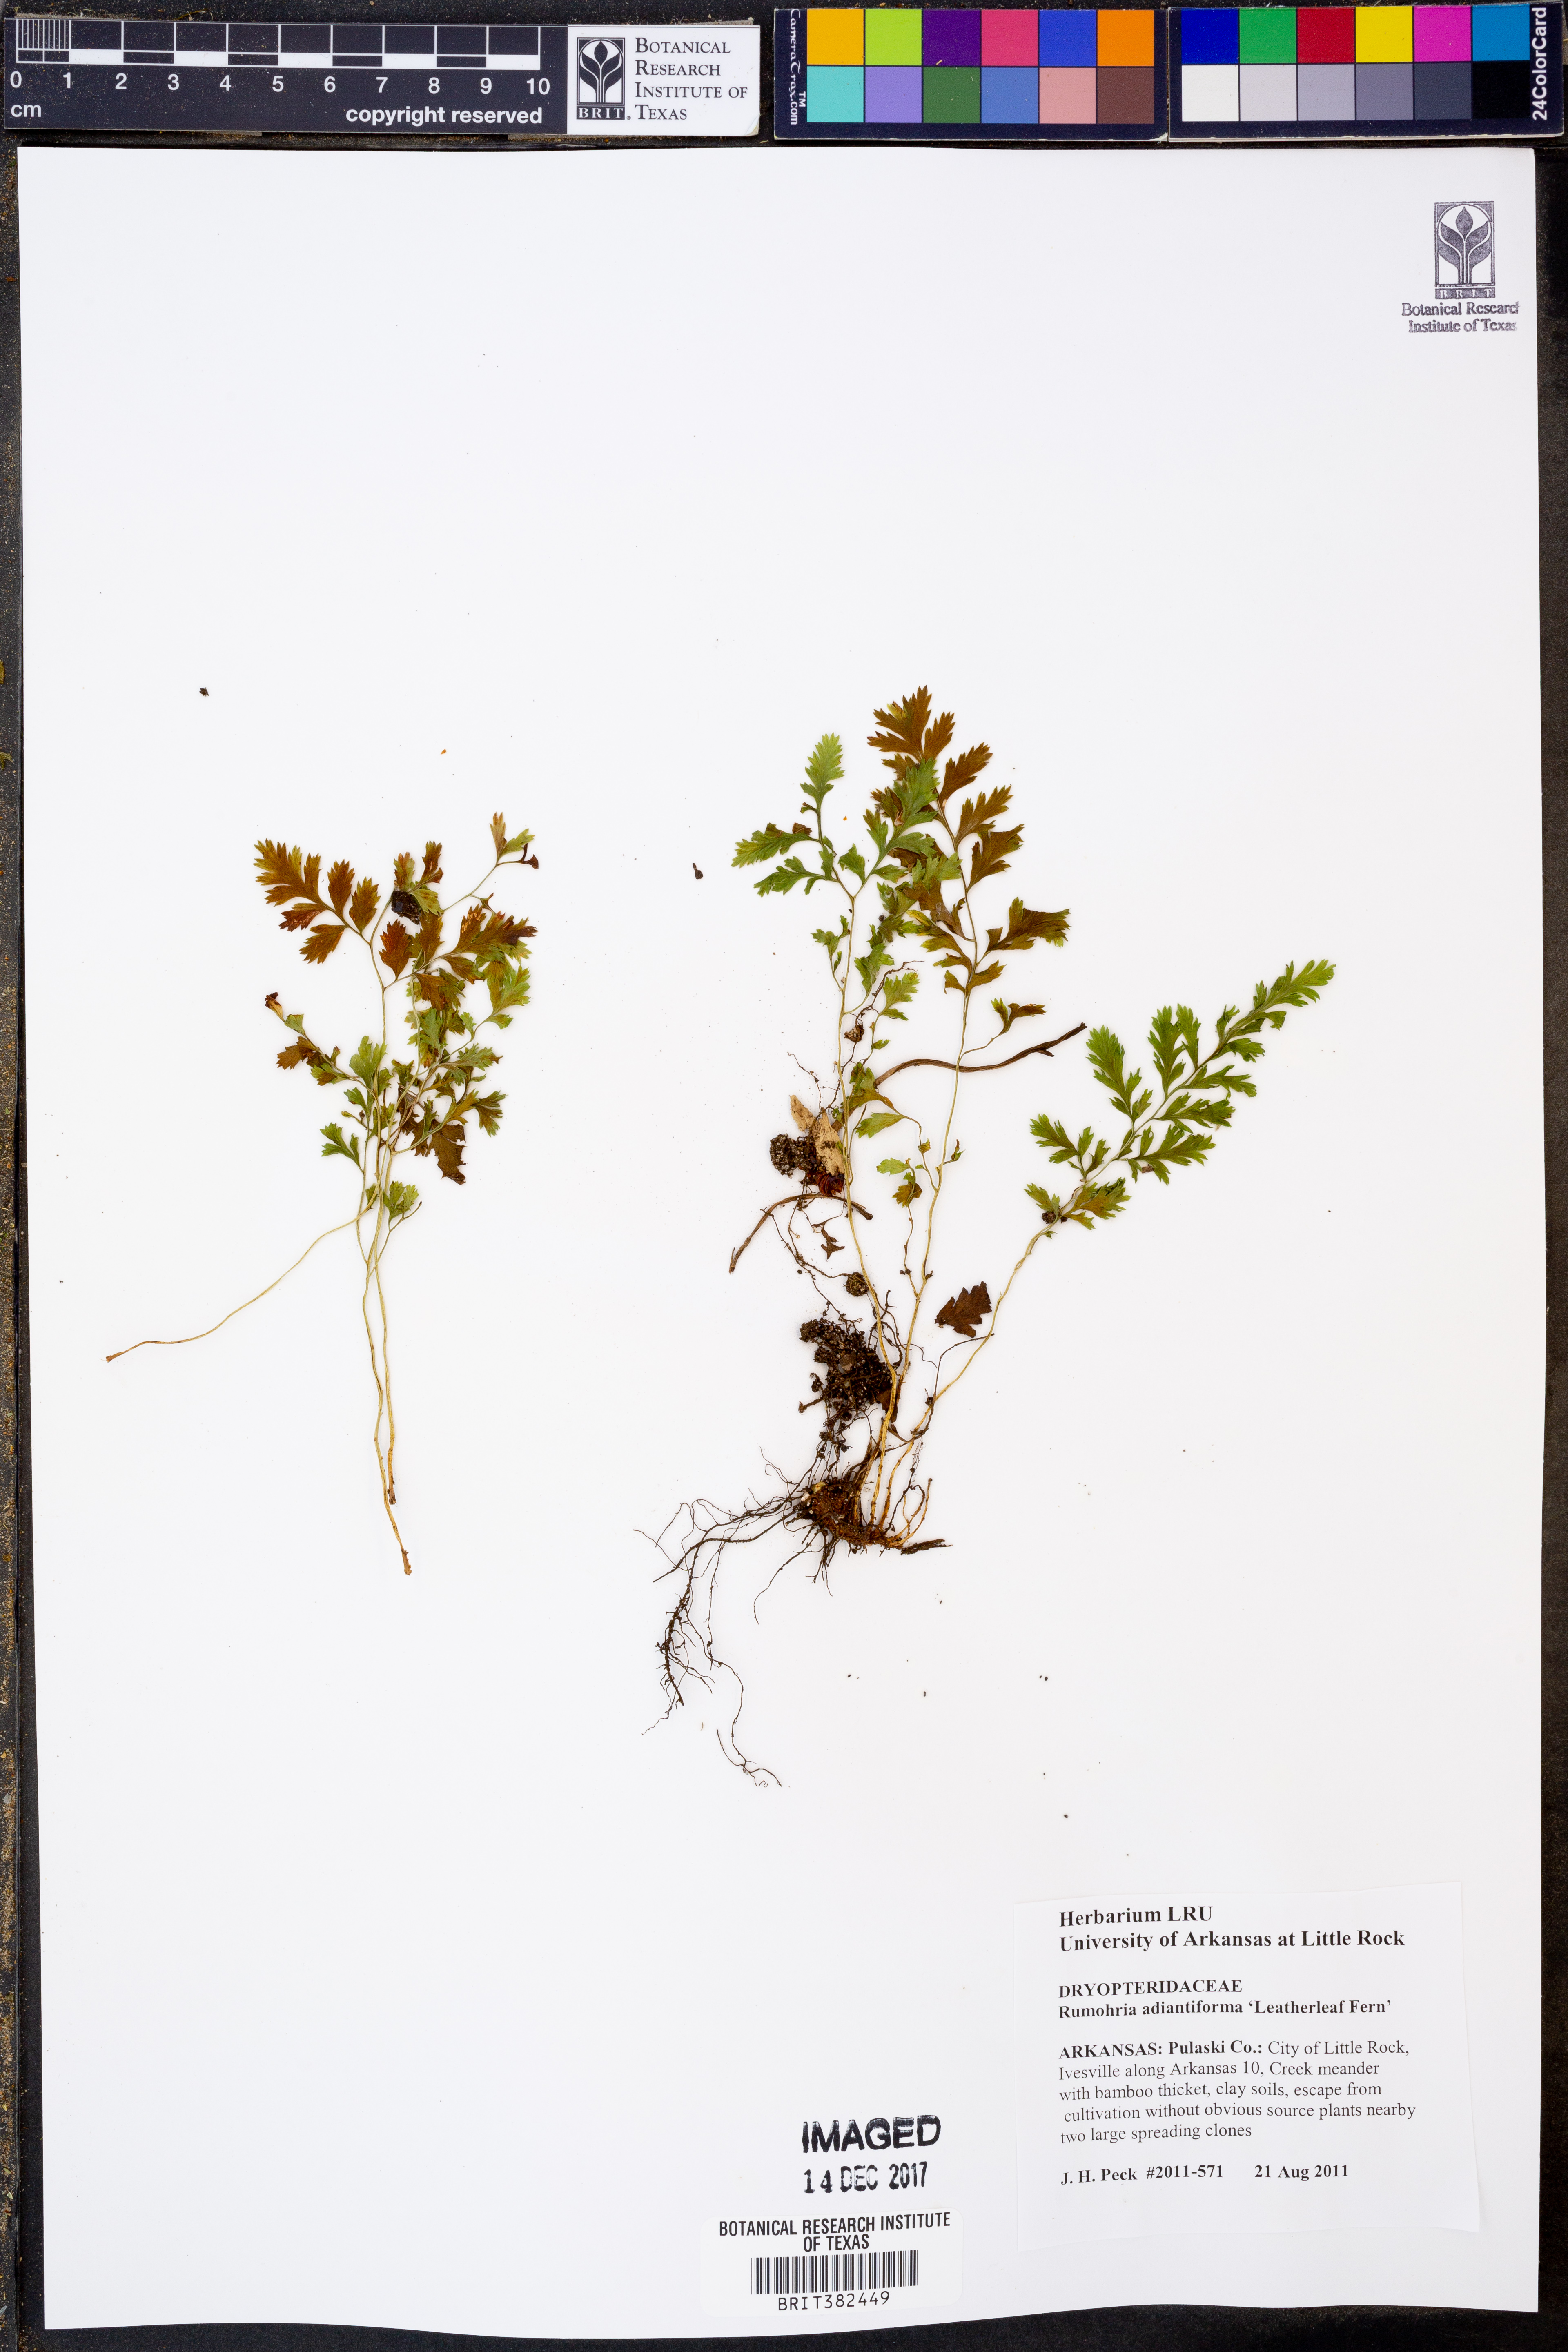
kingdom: Plantae
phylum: Tracheophyta
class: Polypodiopsida
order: Polypodiales
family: Dryopteridaceae
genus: Rumohra
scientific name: Rumohra adiantiformis
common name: Leather fern
